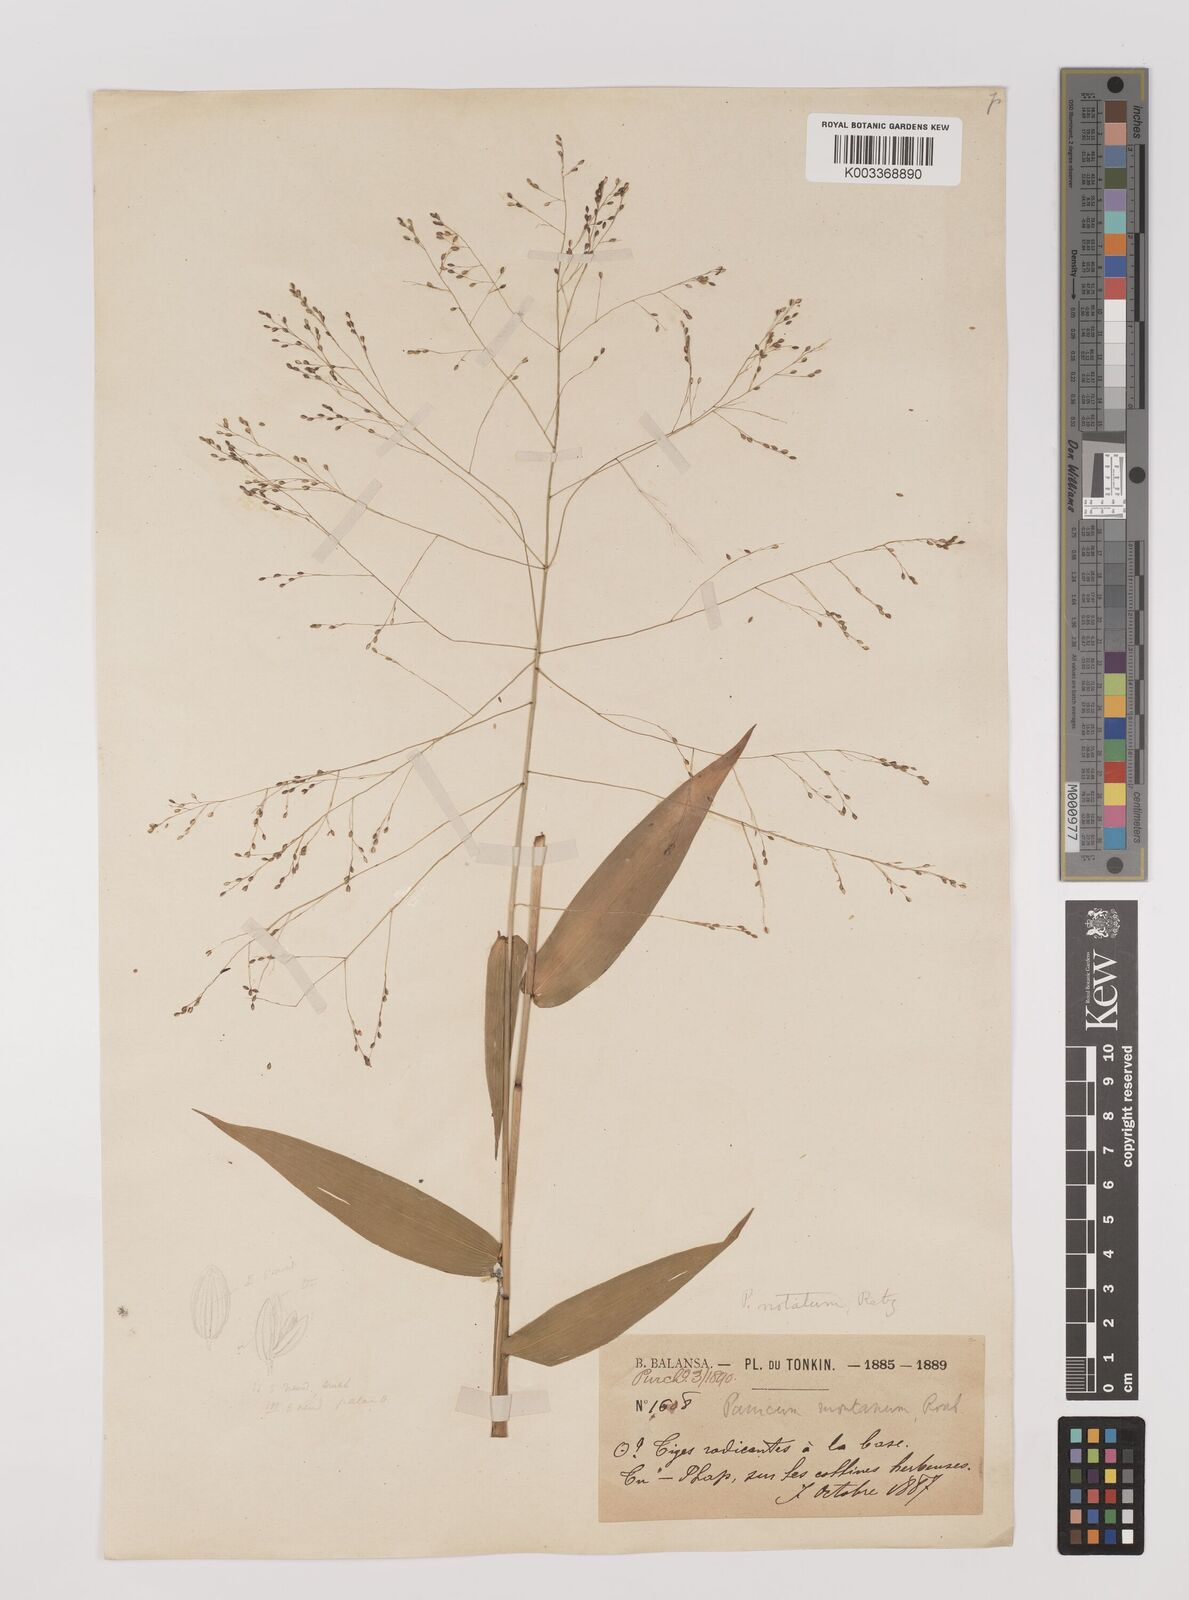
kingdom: Plantae
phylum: Tracheophyta
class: Liliopsida
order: Poales
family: Poaceae
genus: Panicum
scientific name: Panicum notatum
